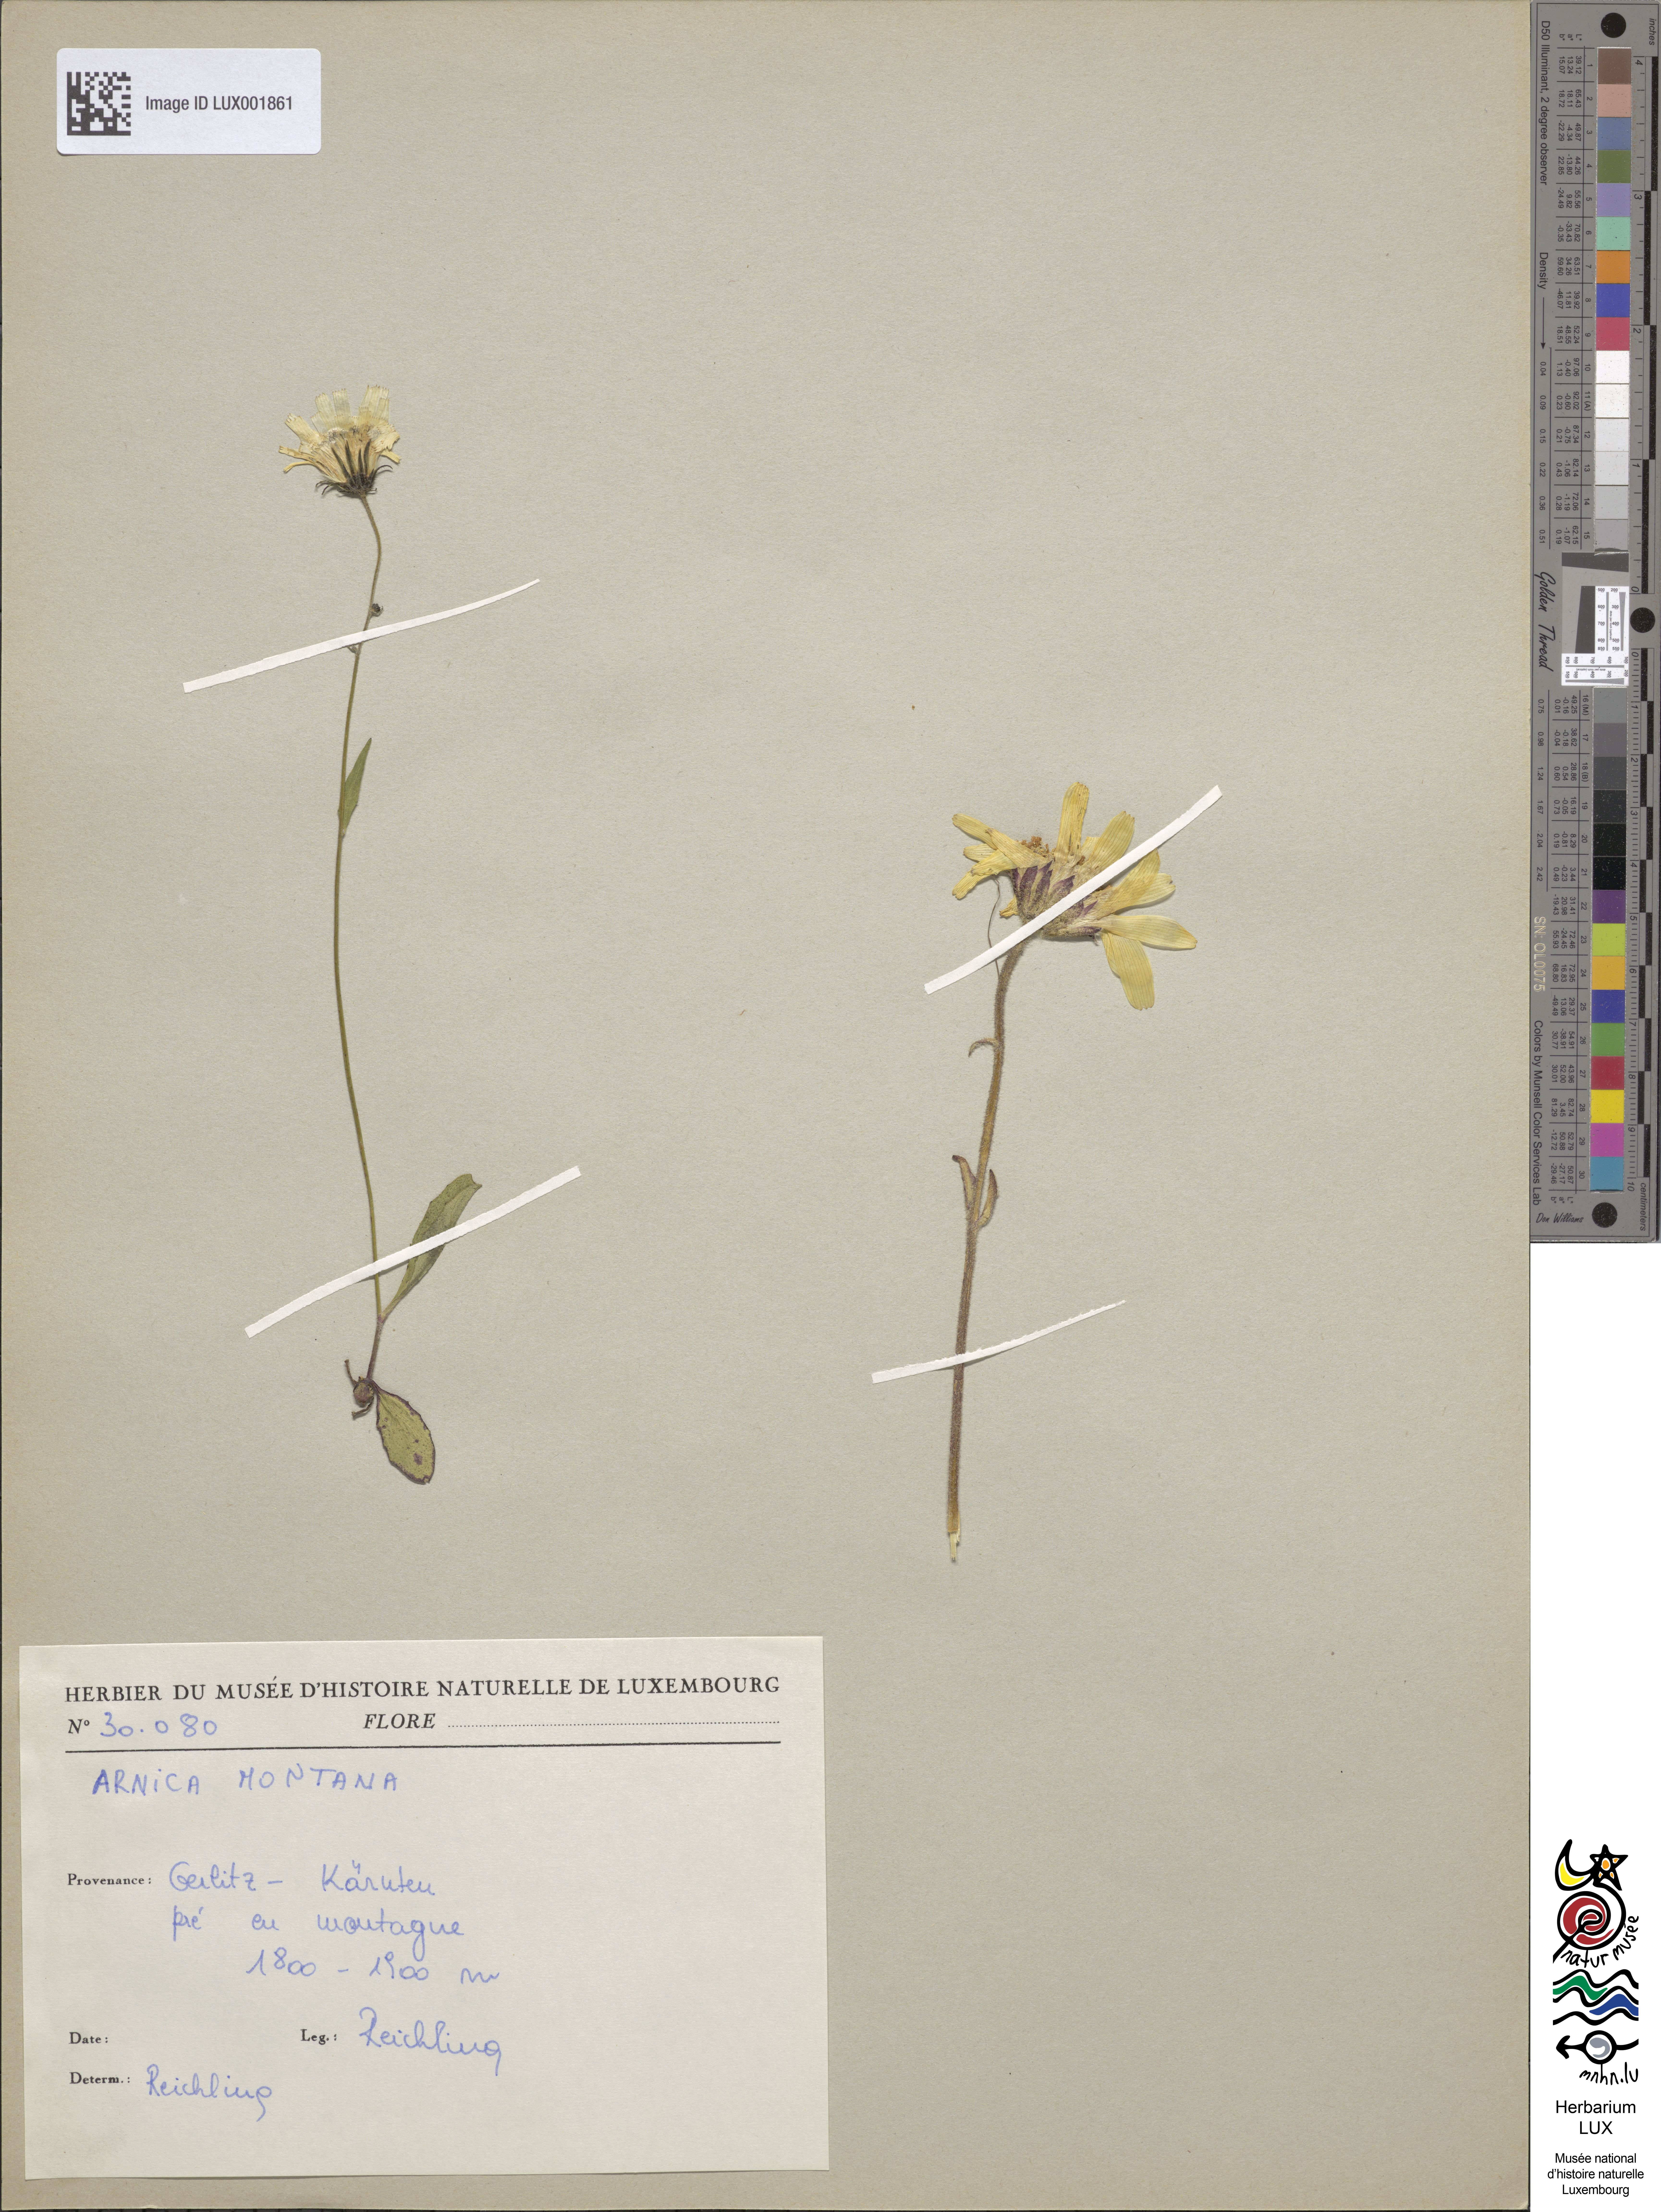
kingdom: Plantae
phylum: Tracheophyta
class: Magnoliopsida
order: Asterales
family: Asteraceae
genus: Arnica
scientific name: Arnica montana
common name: Leopard's bane
